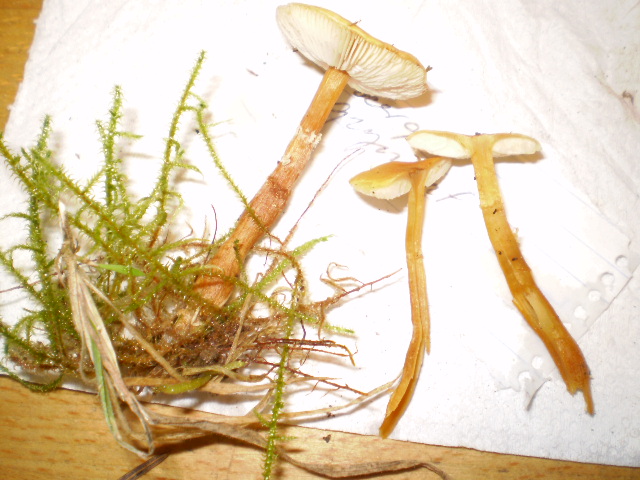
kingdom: Fungi
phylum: Basidiomycota
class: Agaricomycetes
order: Agaricales
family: Tricholomataceae
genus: Cystoderma
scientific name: Cystoderma amianthinum
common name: okkergul grynhat
